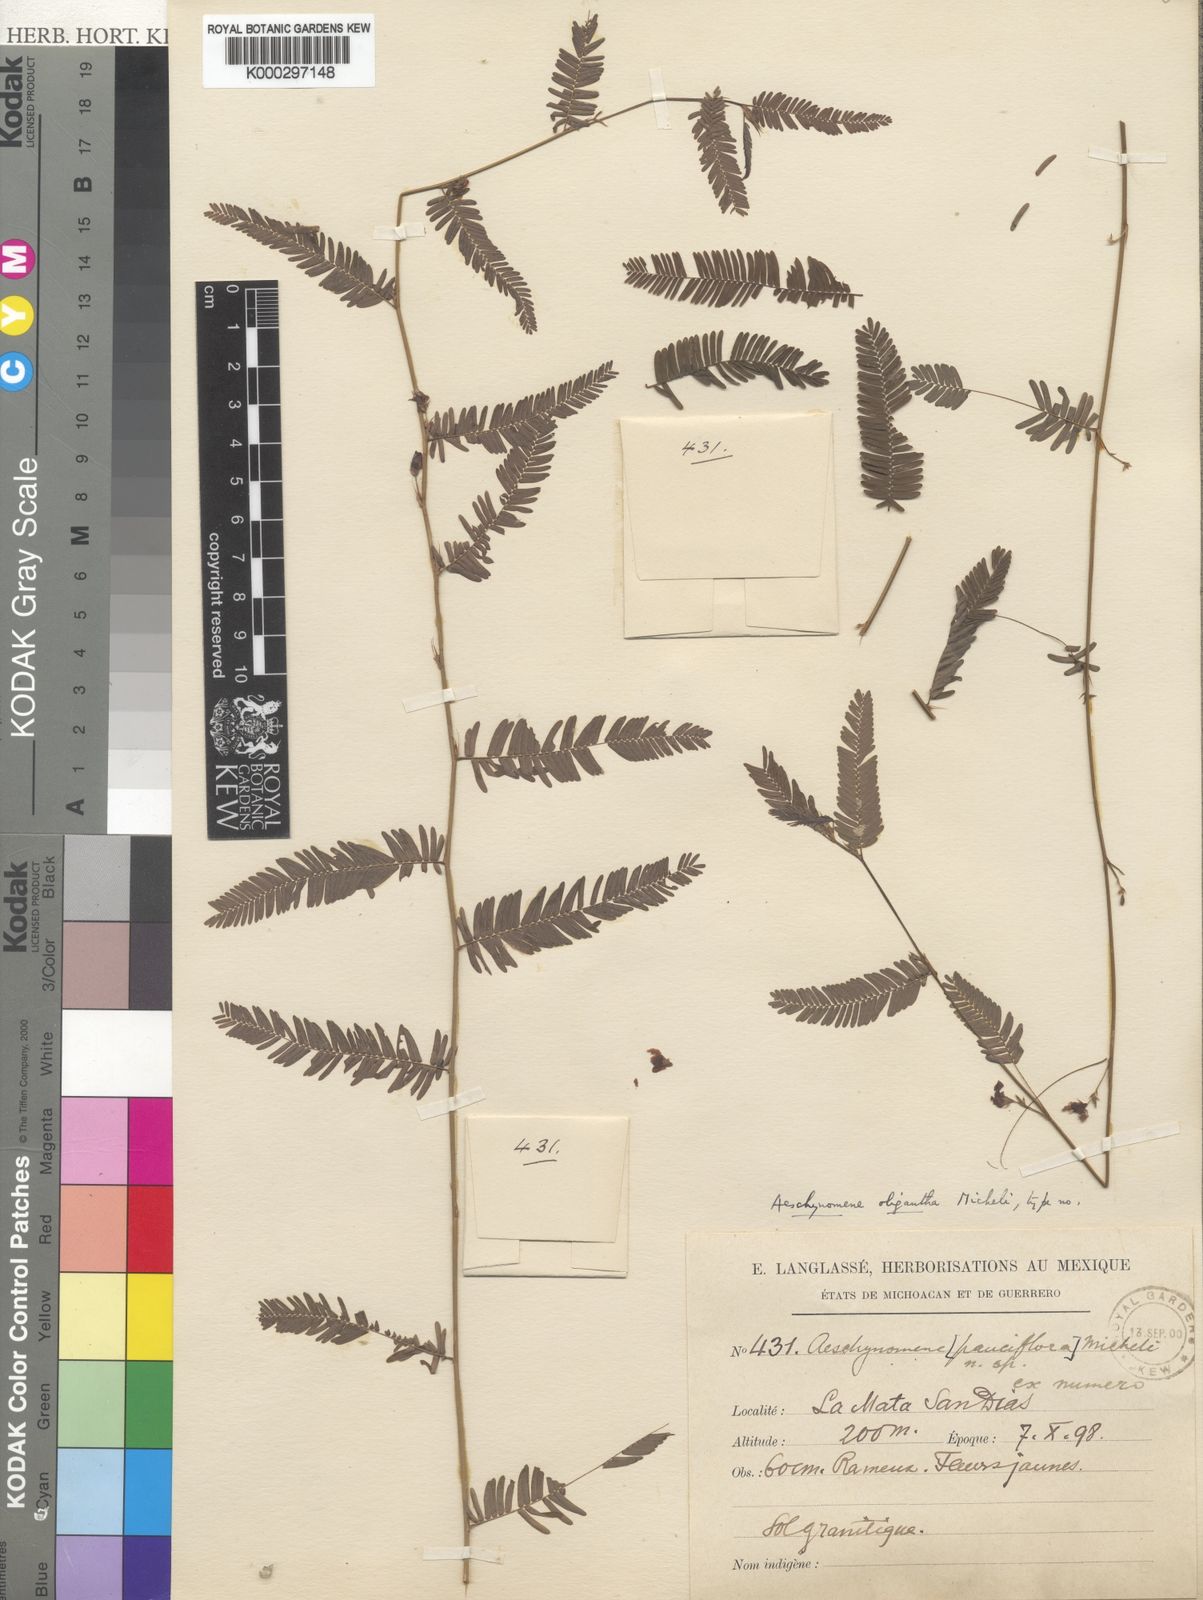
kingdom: Plantae
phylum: Tracheophyta
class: Magnoliopsida
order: Fabales
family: Fabaceae
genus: Ctenodon
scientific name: Ctenodon fascicularis
